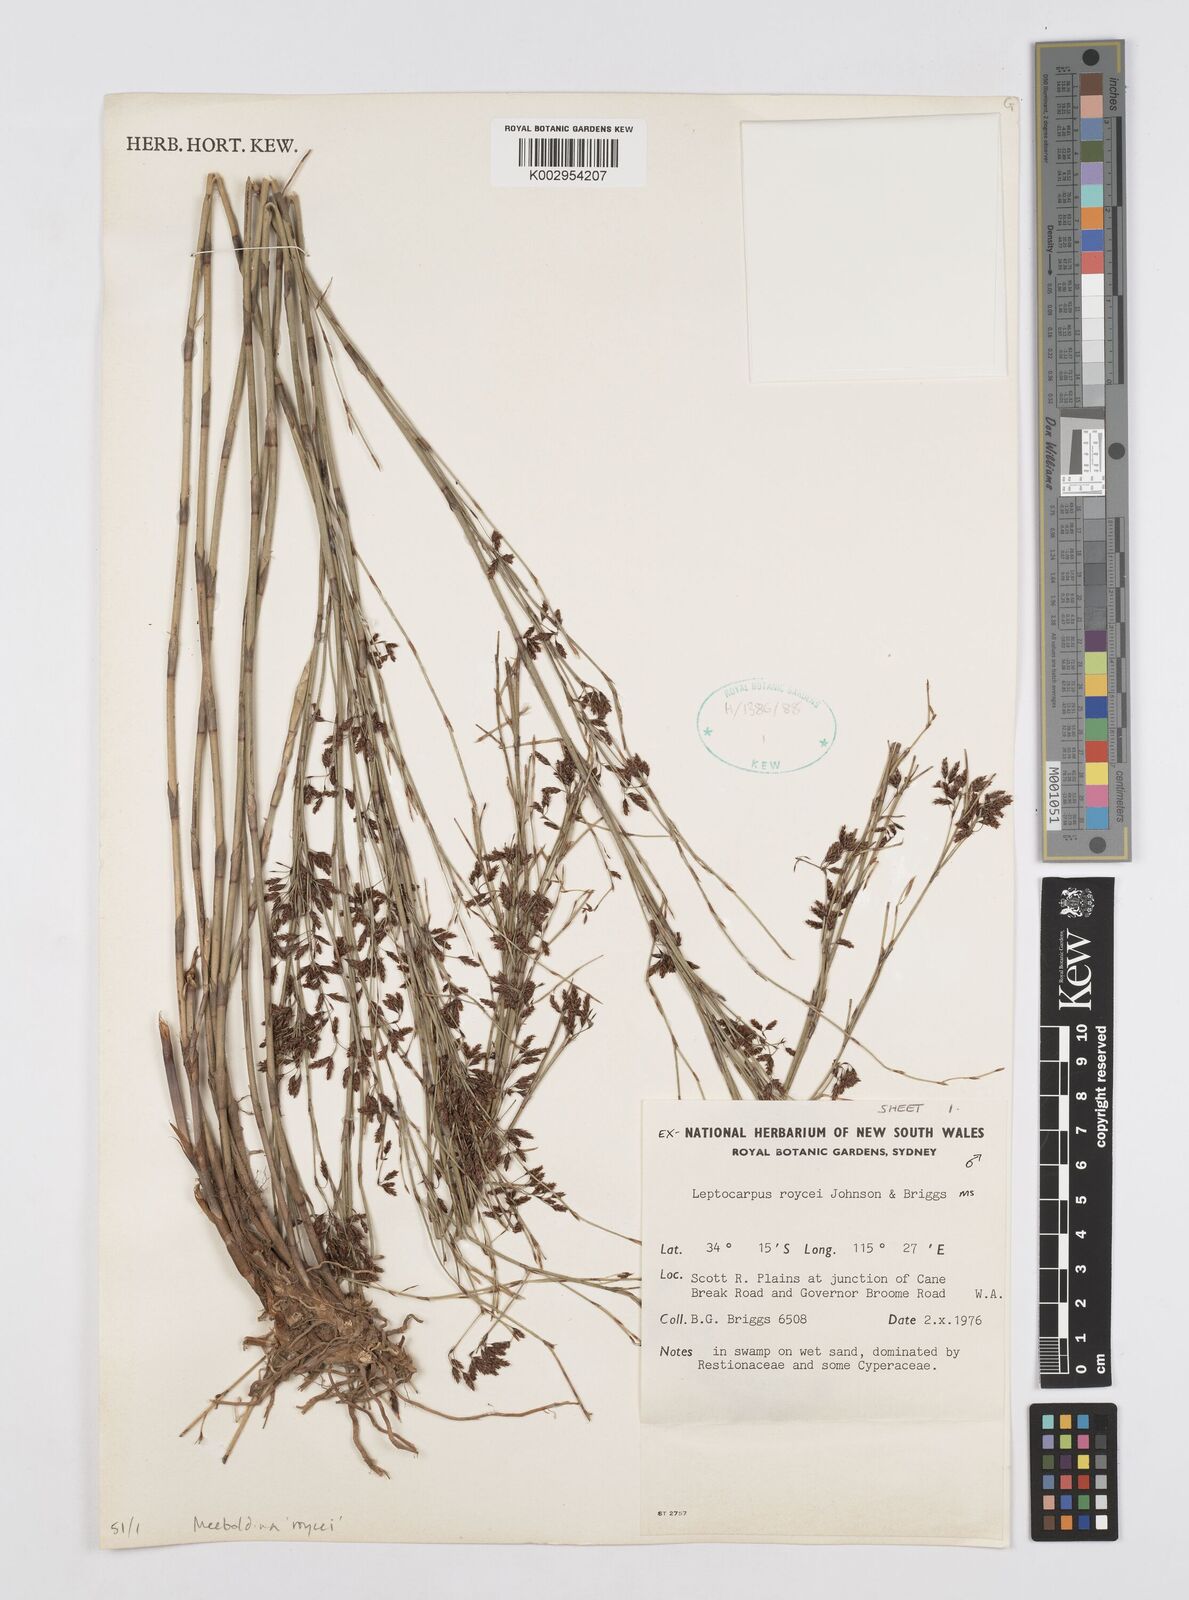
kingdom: Plantae
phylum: Tracheophyta
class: Liliopsida
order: Poales
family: Restionaceae
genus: Leptocarpus
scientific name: Leptocarpus roycei
